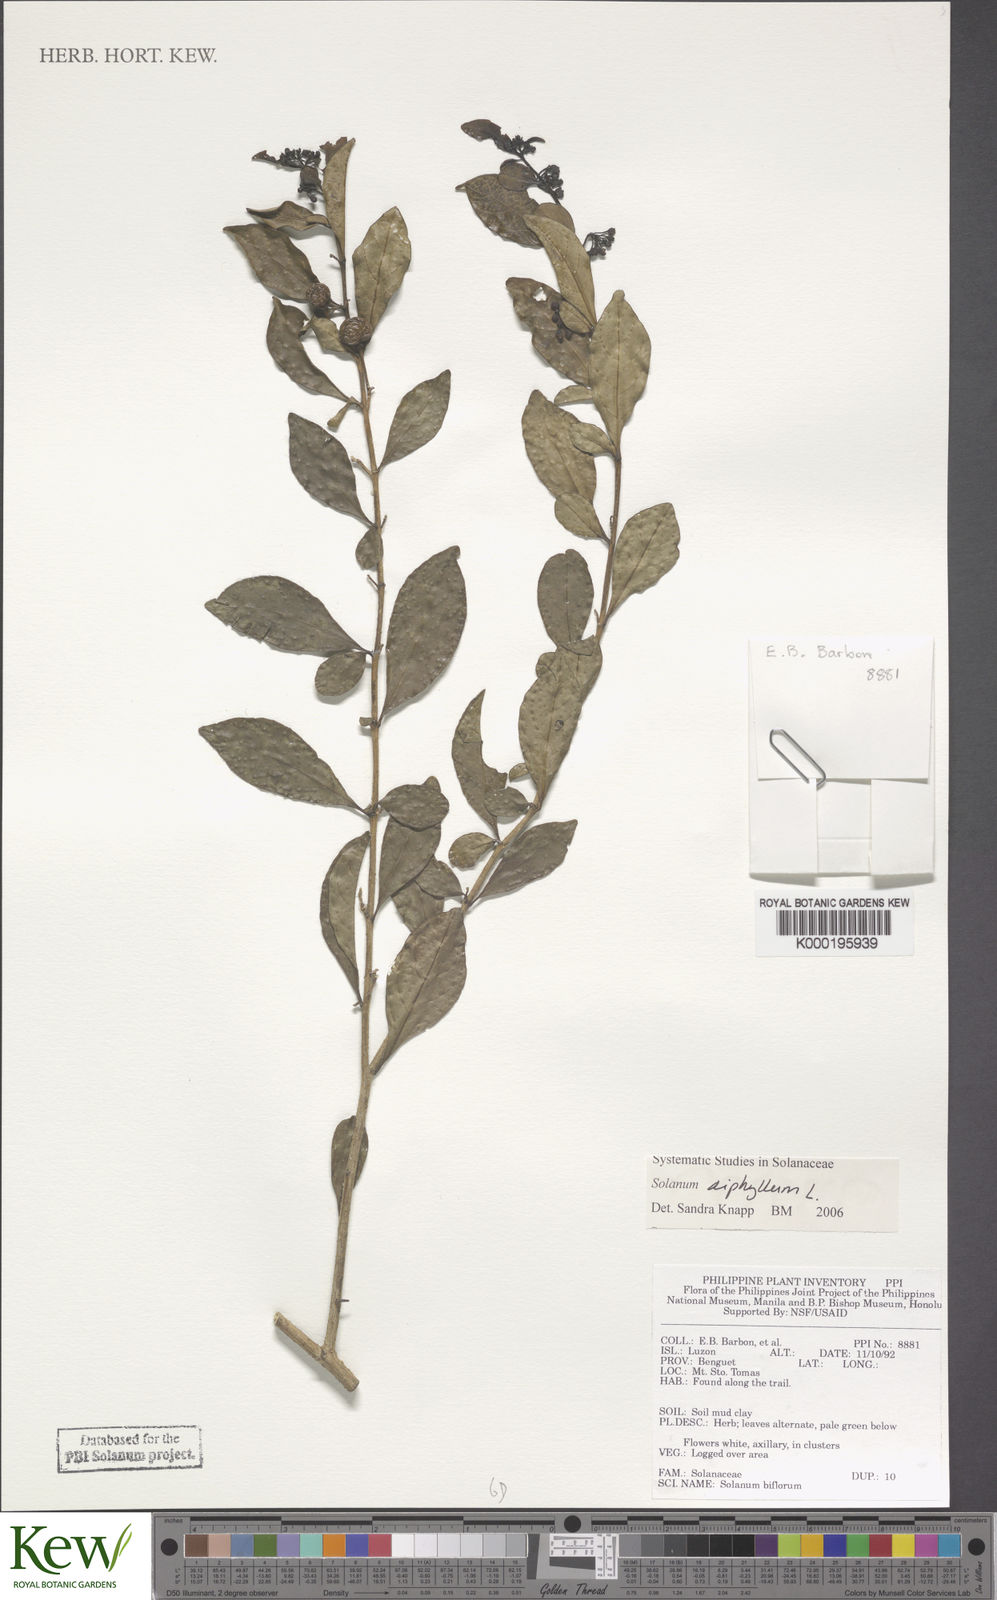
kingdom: Plantae
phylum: Tracheophyta
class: Magnoliopsida
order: Solanales
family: Solanaceae
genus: Solanum
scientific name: Solanum diphyllum
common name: Twoleaf nightshade
